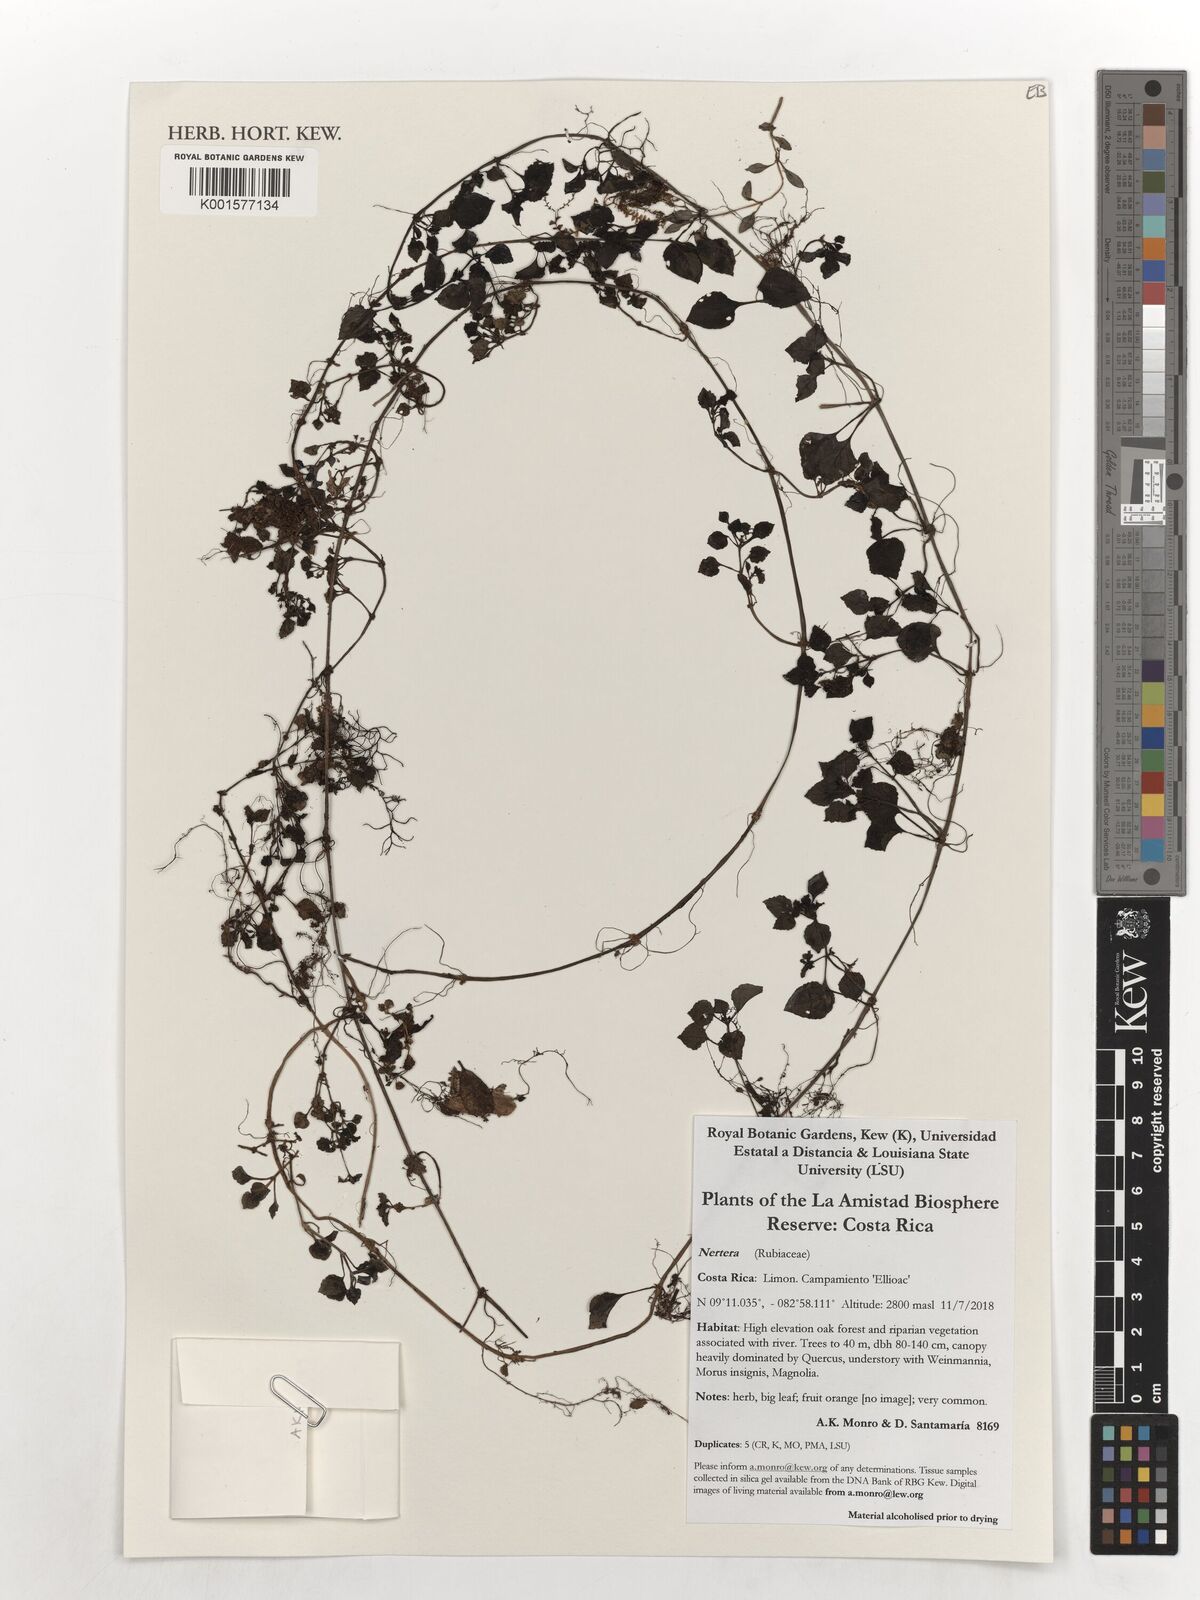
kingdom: Plantae
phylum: Tracheophyta
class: Magnoliopsida
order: Gentianales
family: Rubiaceae
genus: Nertera
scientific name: Nertera
